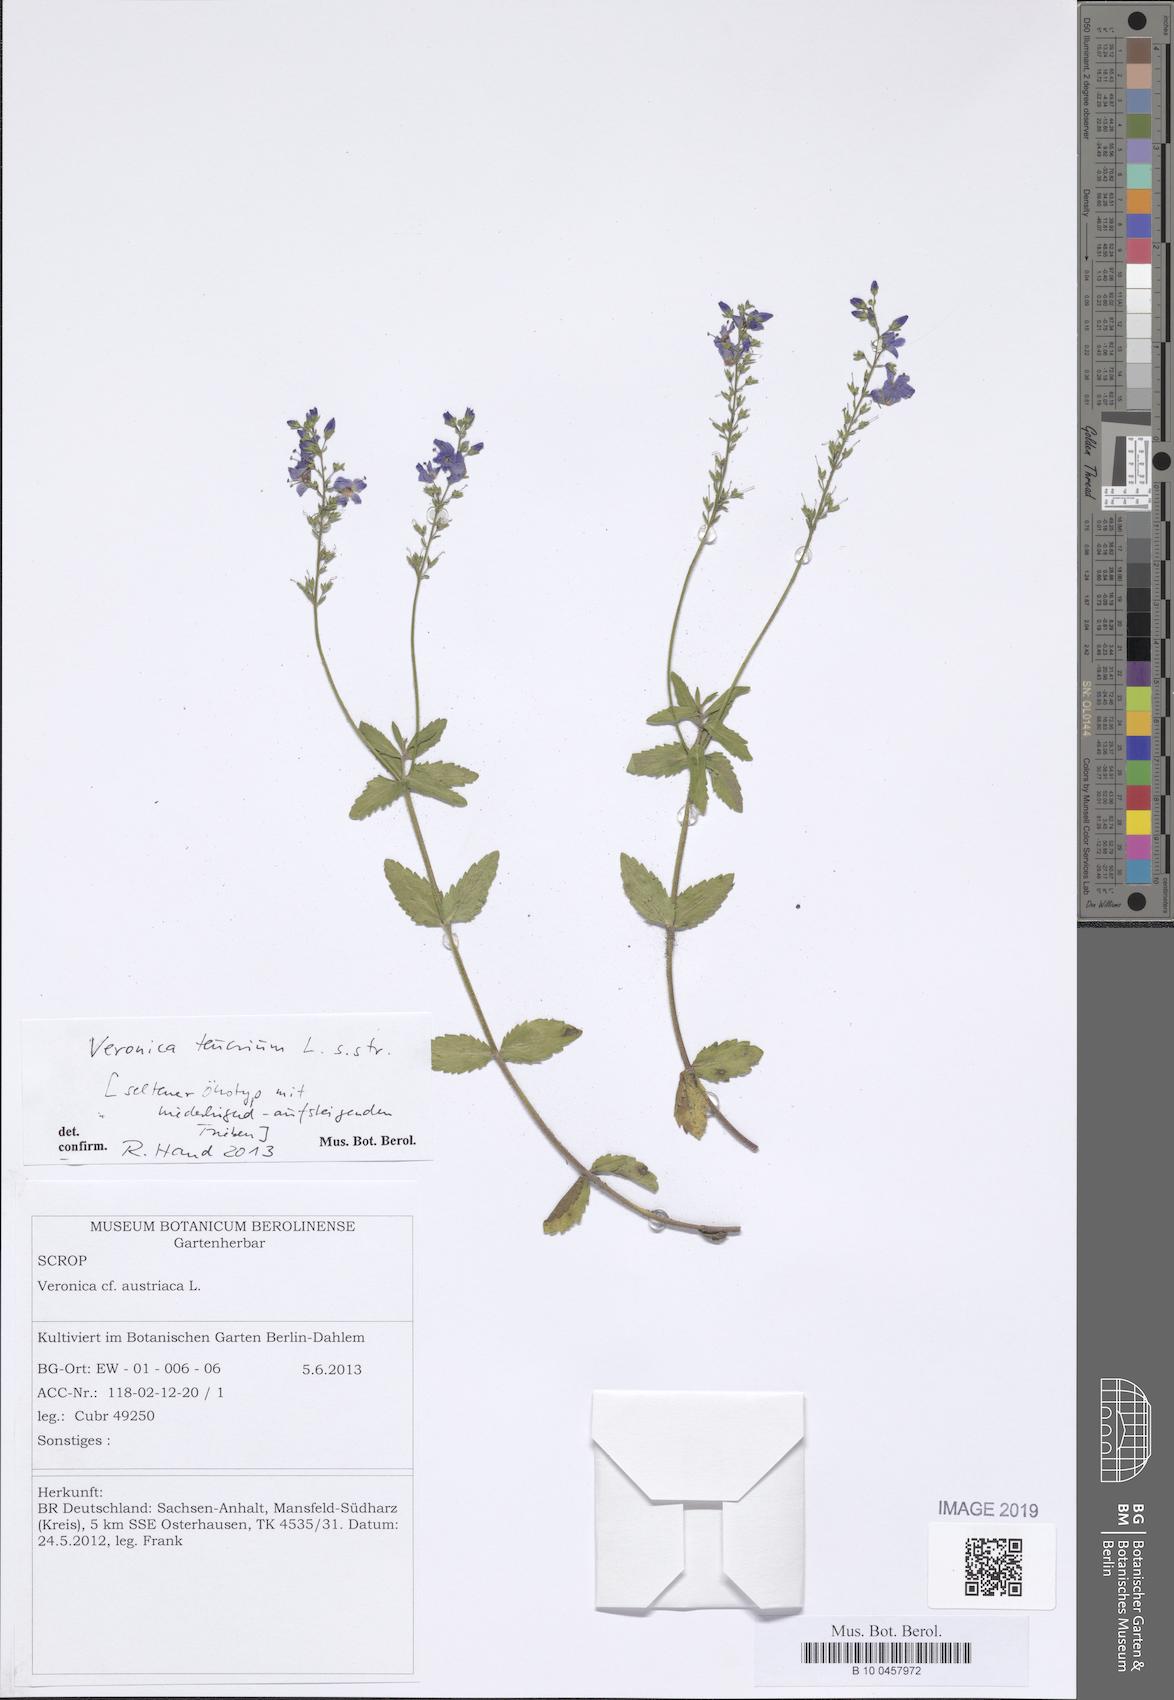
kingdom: Plantae
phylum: Tracheophyta
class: Magnoliopsida
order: Lamiales
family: Plantaginaceae
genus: Veronica
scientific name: Veronica teucrium
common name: Large speedwell
